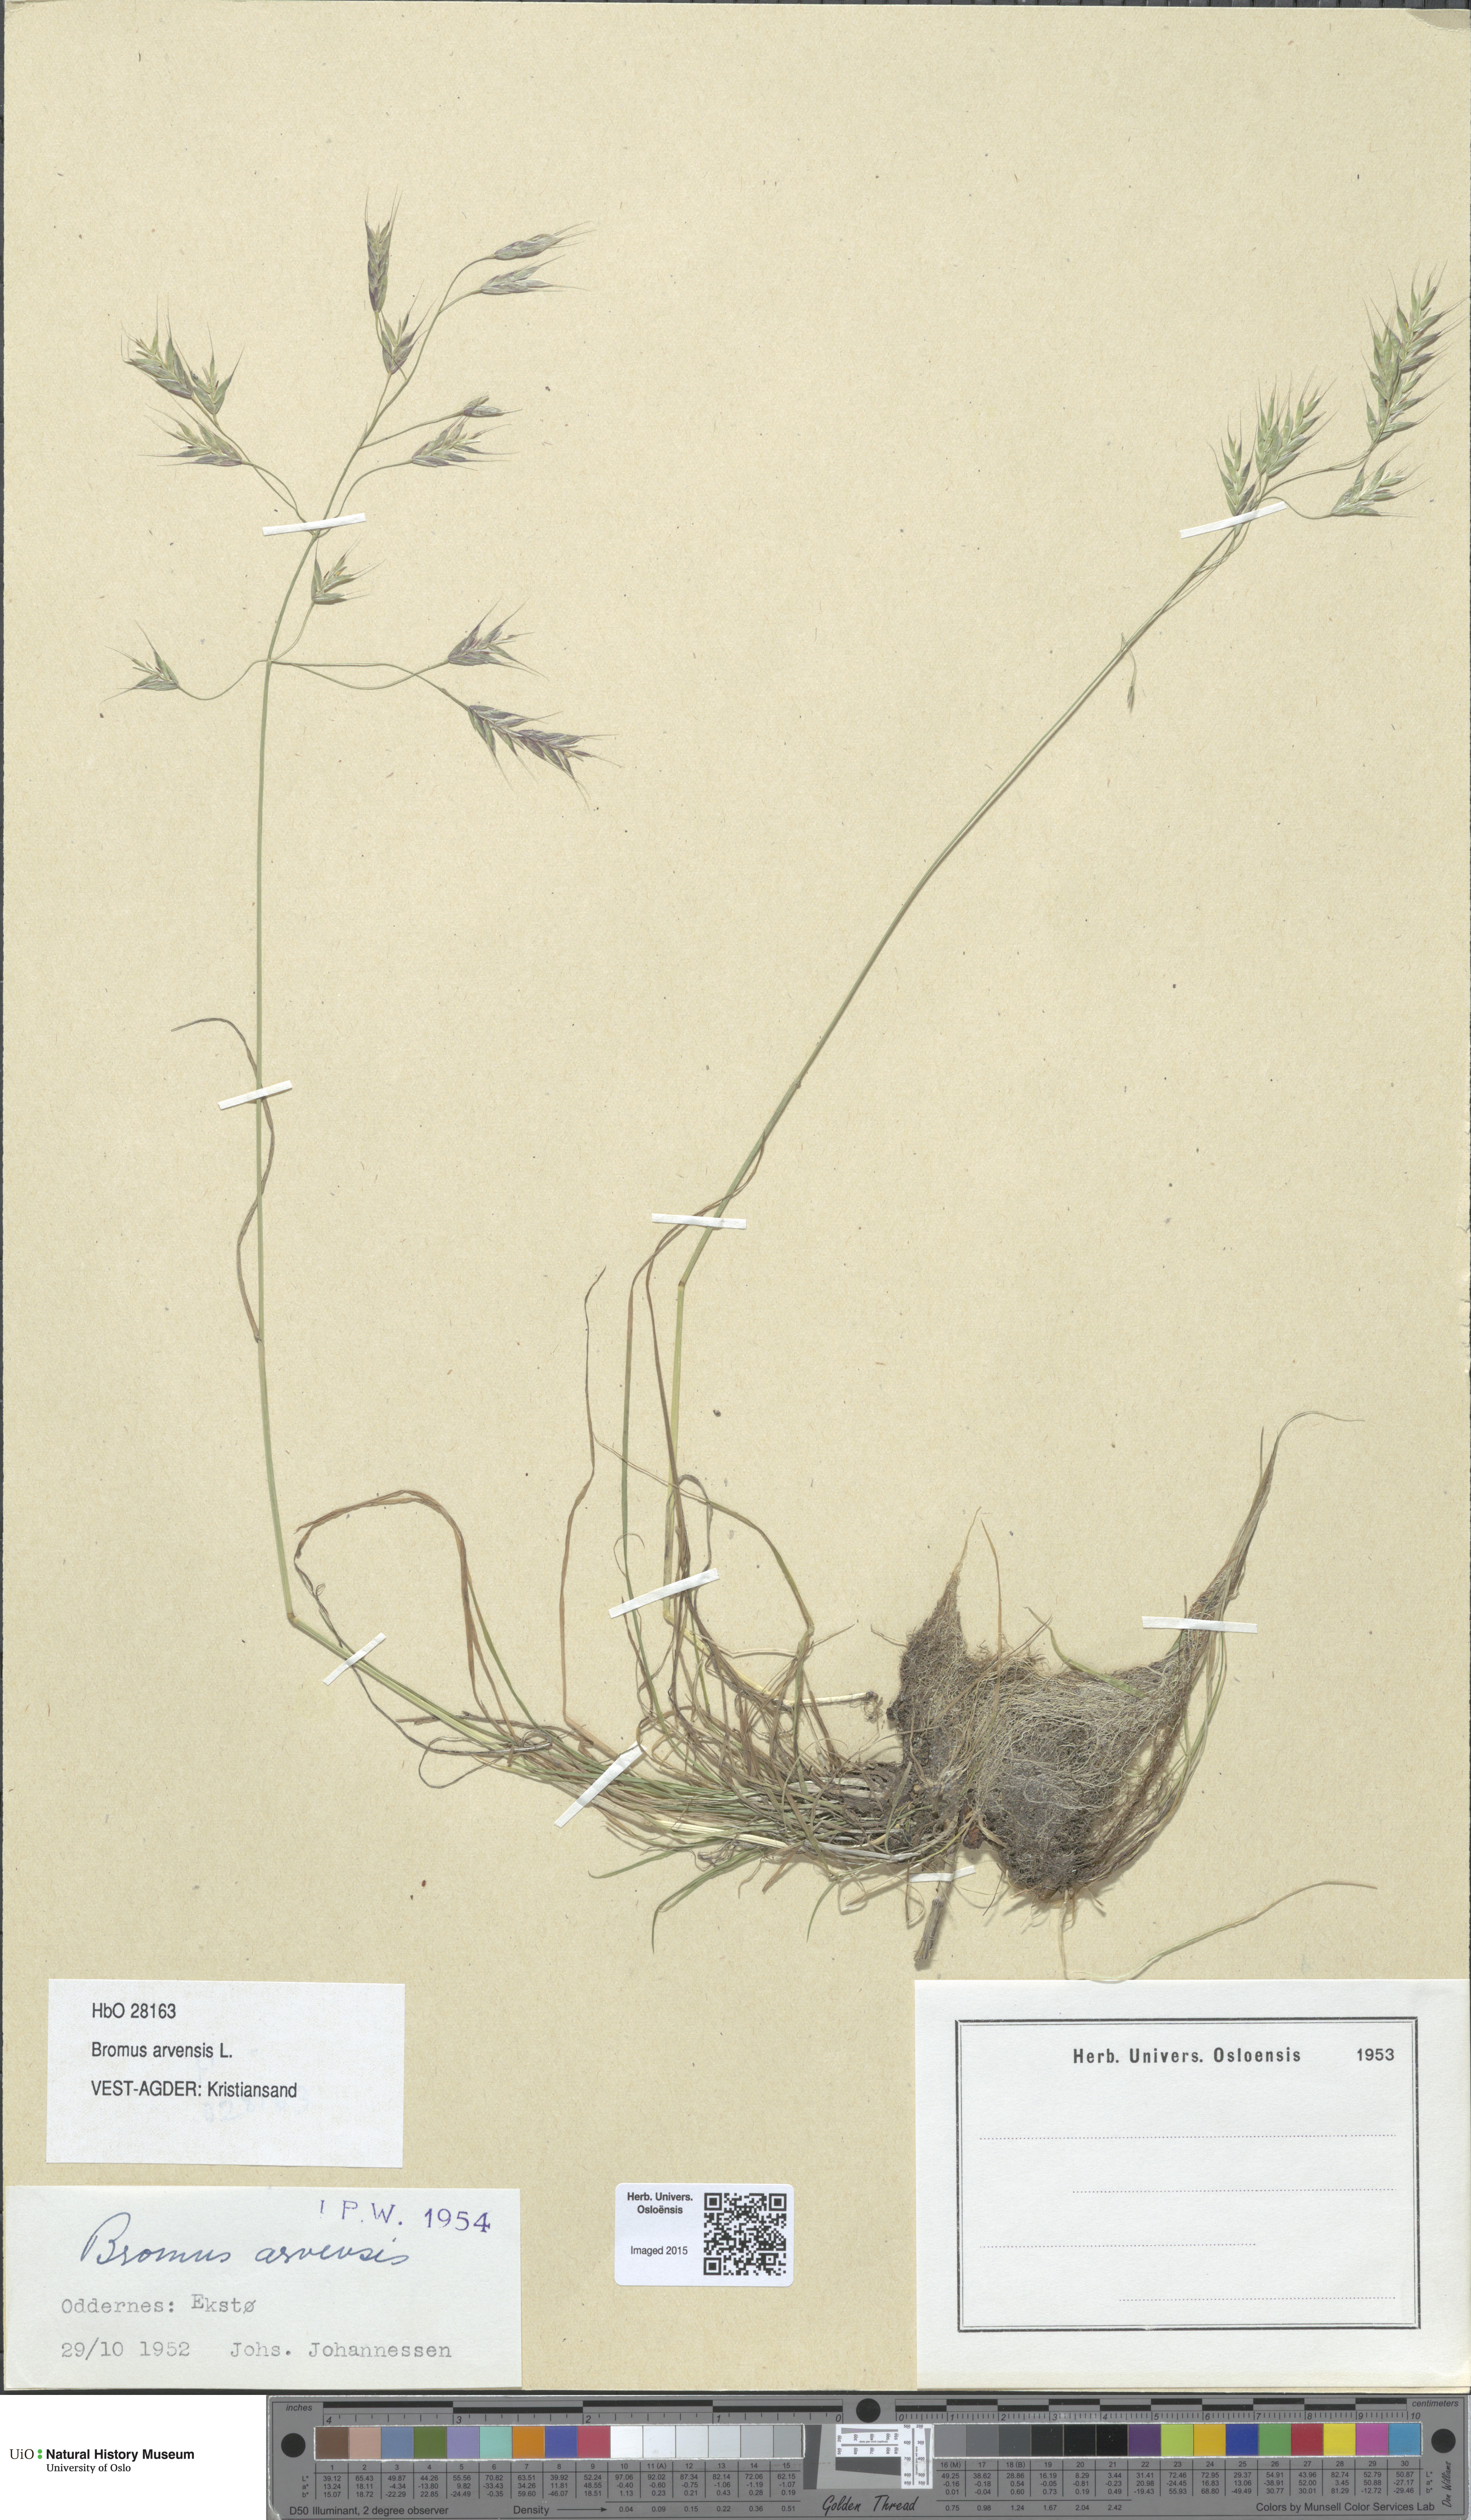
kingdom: Plantae
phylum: Tracheophyta
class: Liliopsida
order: Poales
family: Poaceae
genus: Bromus
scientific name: Bromus arvensis
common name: Field brome
